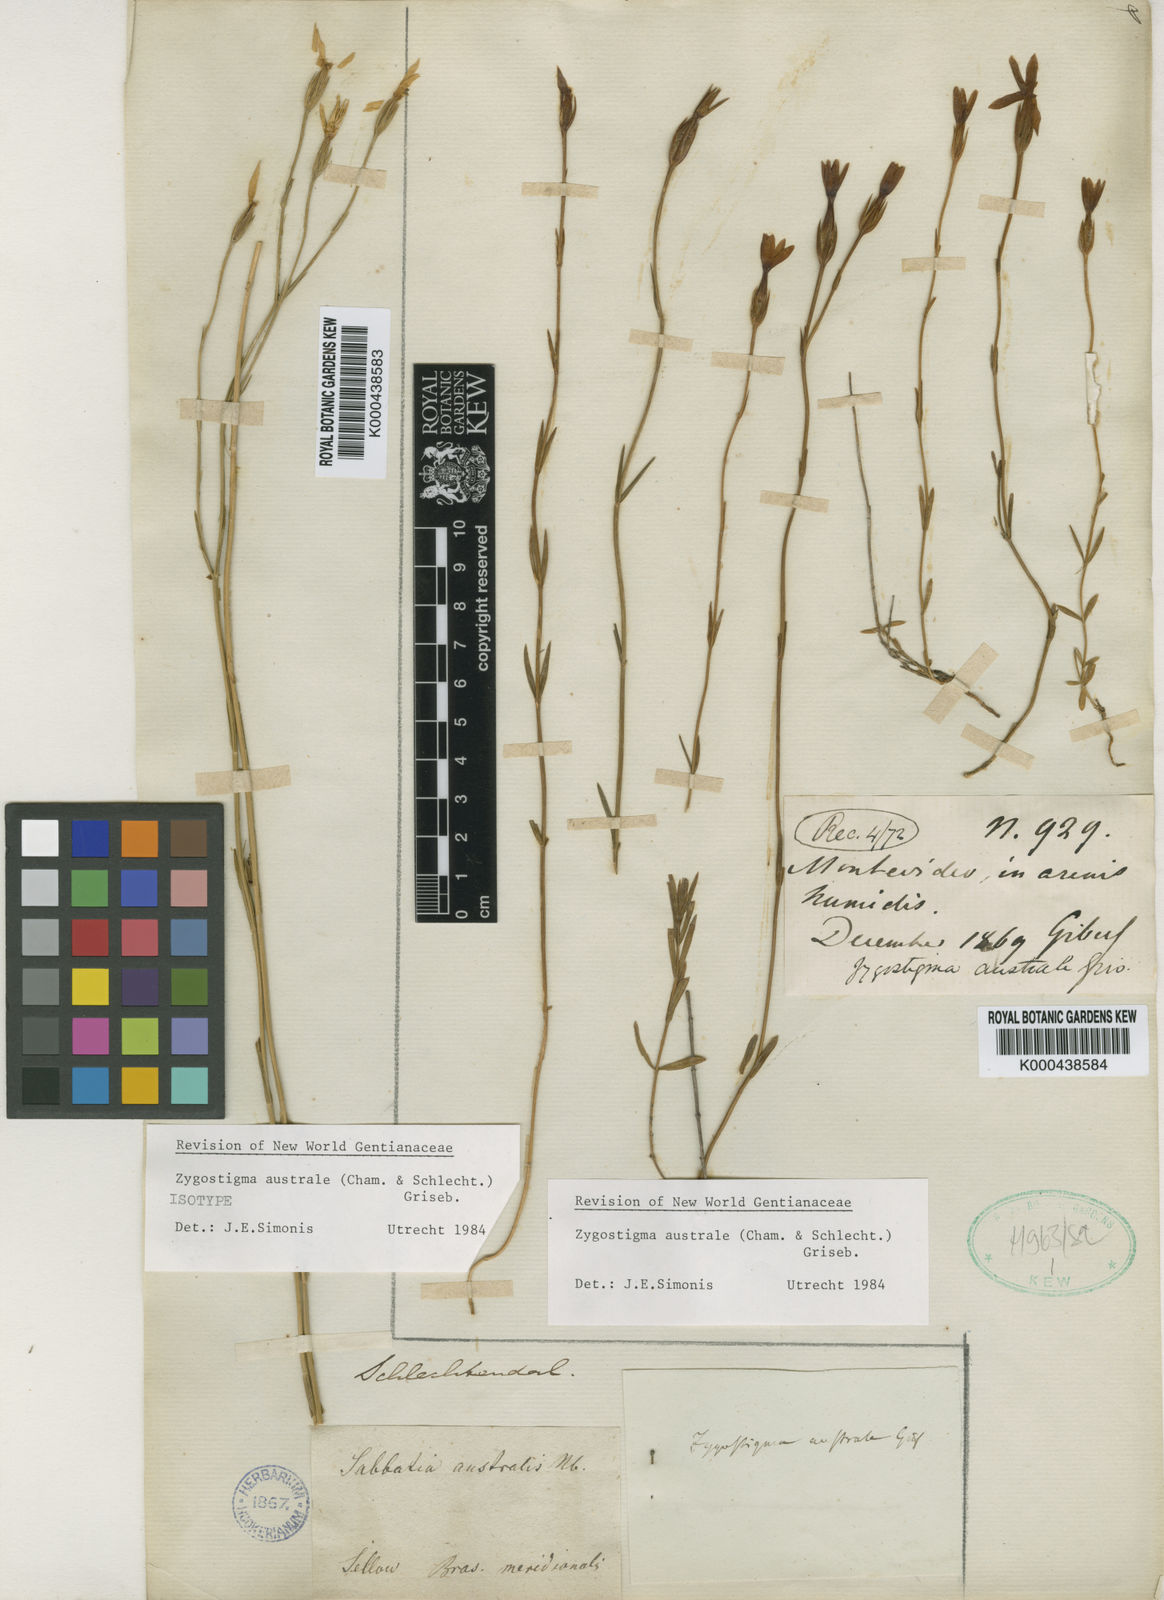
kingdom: Plantae
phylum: Tracheophyta
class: Magnoliopsida
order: Gentianales
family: Gentianaceae
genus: Zygostigma
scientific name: Zygostigma australe
